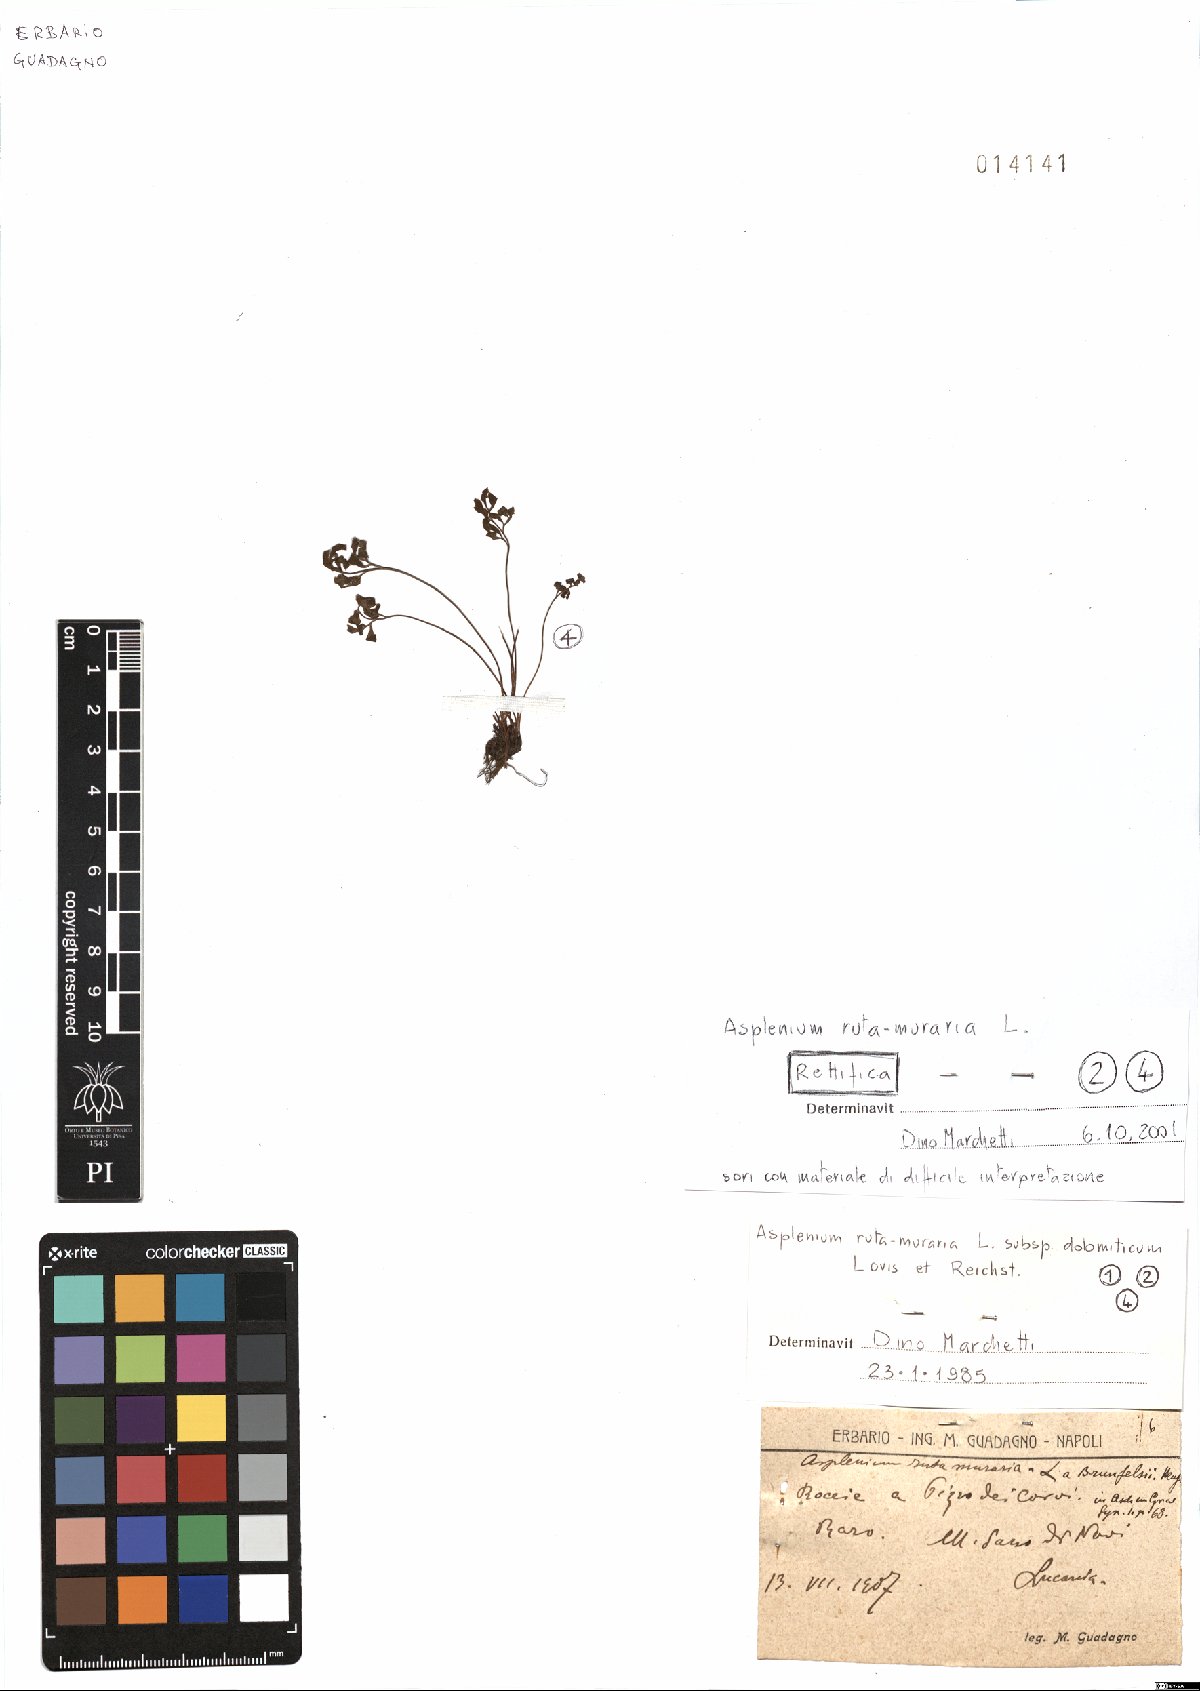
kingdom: Plantae
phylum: Tracheophyta
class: Polypodiopsida
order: Polypodiales
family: Aspleniaceae
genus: Asplenium
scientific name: Asplenium ruta-muraria
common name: Wall-rue
